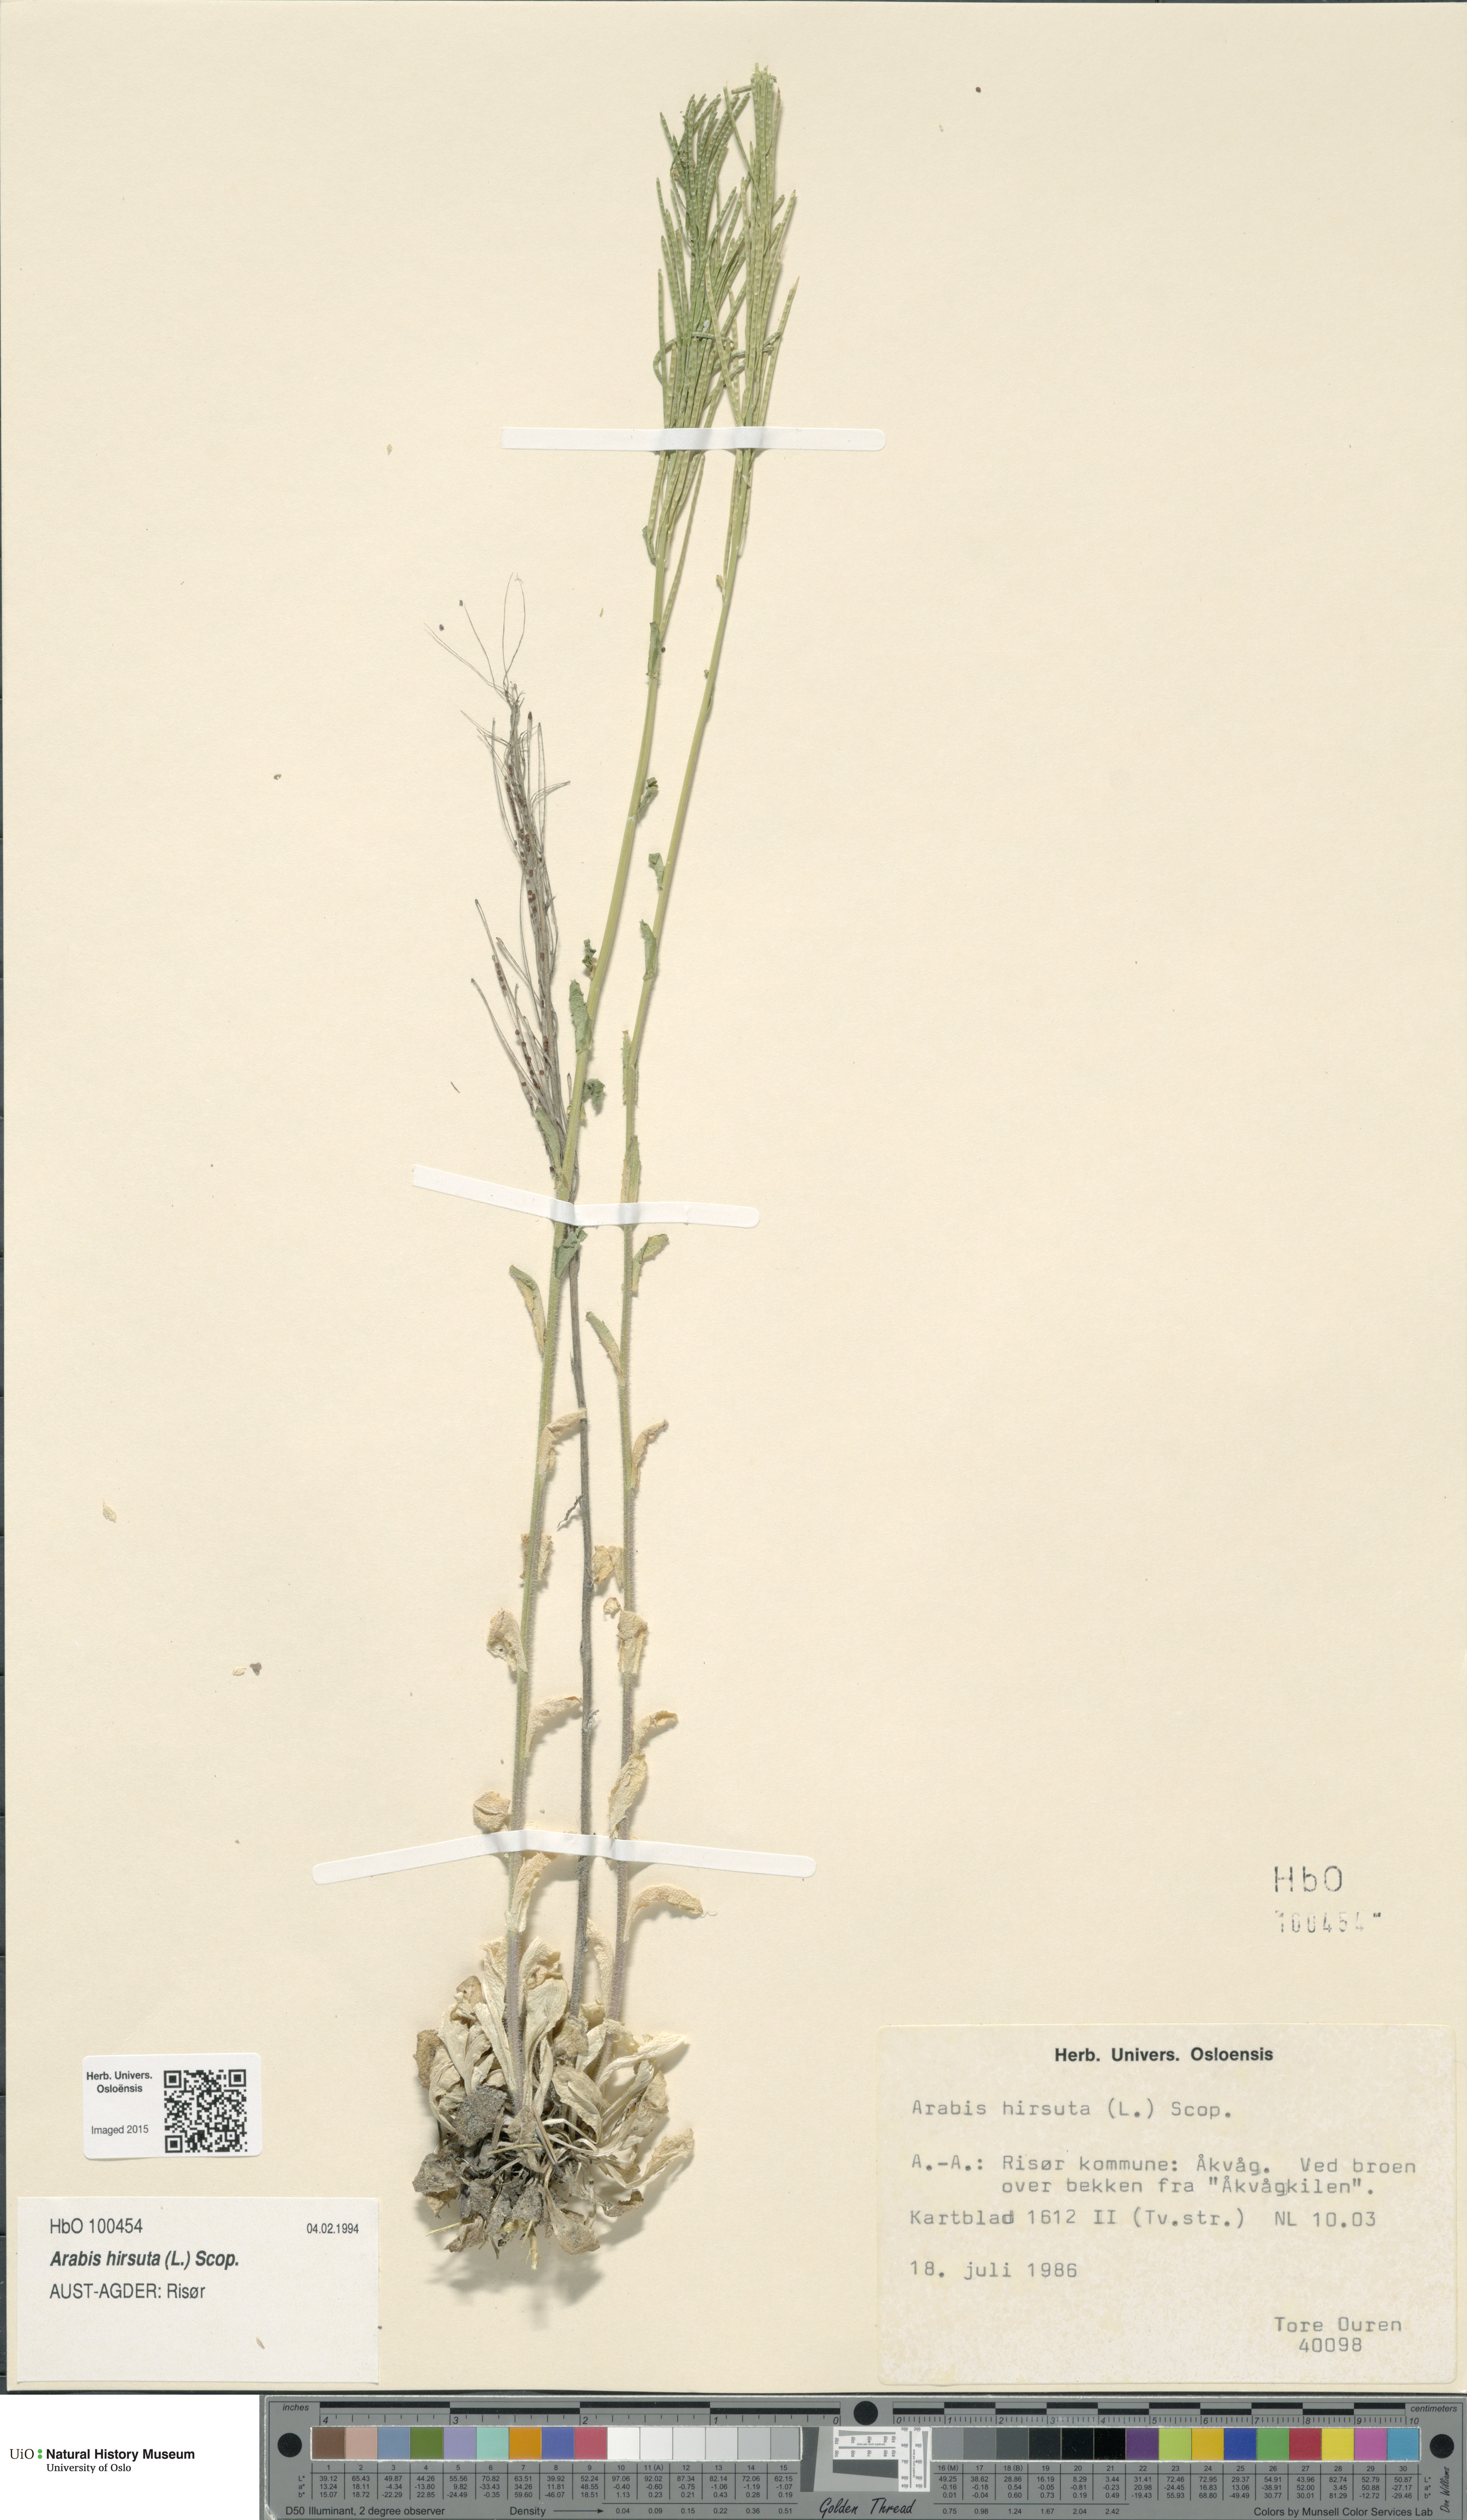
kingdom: Plantae
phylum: Tracheophyta
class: Magnoliopsida
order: Brassicales
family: Brassicaceae
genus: Arabis
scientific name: Arabis hirsuta
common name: Hairy rock-cress
